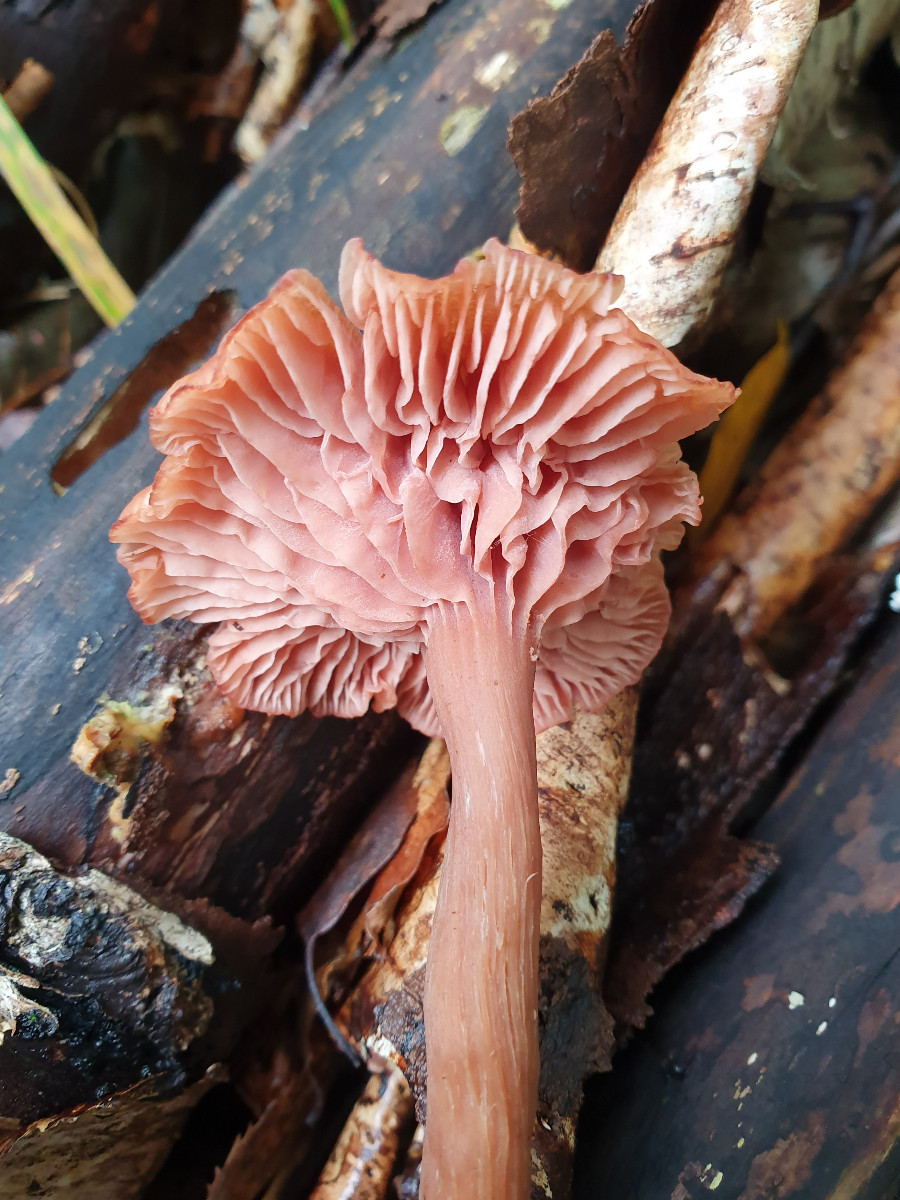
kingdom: Fungi
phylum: Basidiomycota
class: Agaricomycetes
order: Agaricales
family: Hydnangiaceae
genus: Laccaria
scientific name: Laccaria laccata
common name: rød ametysthat
